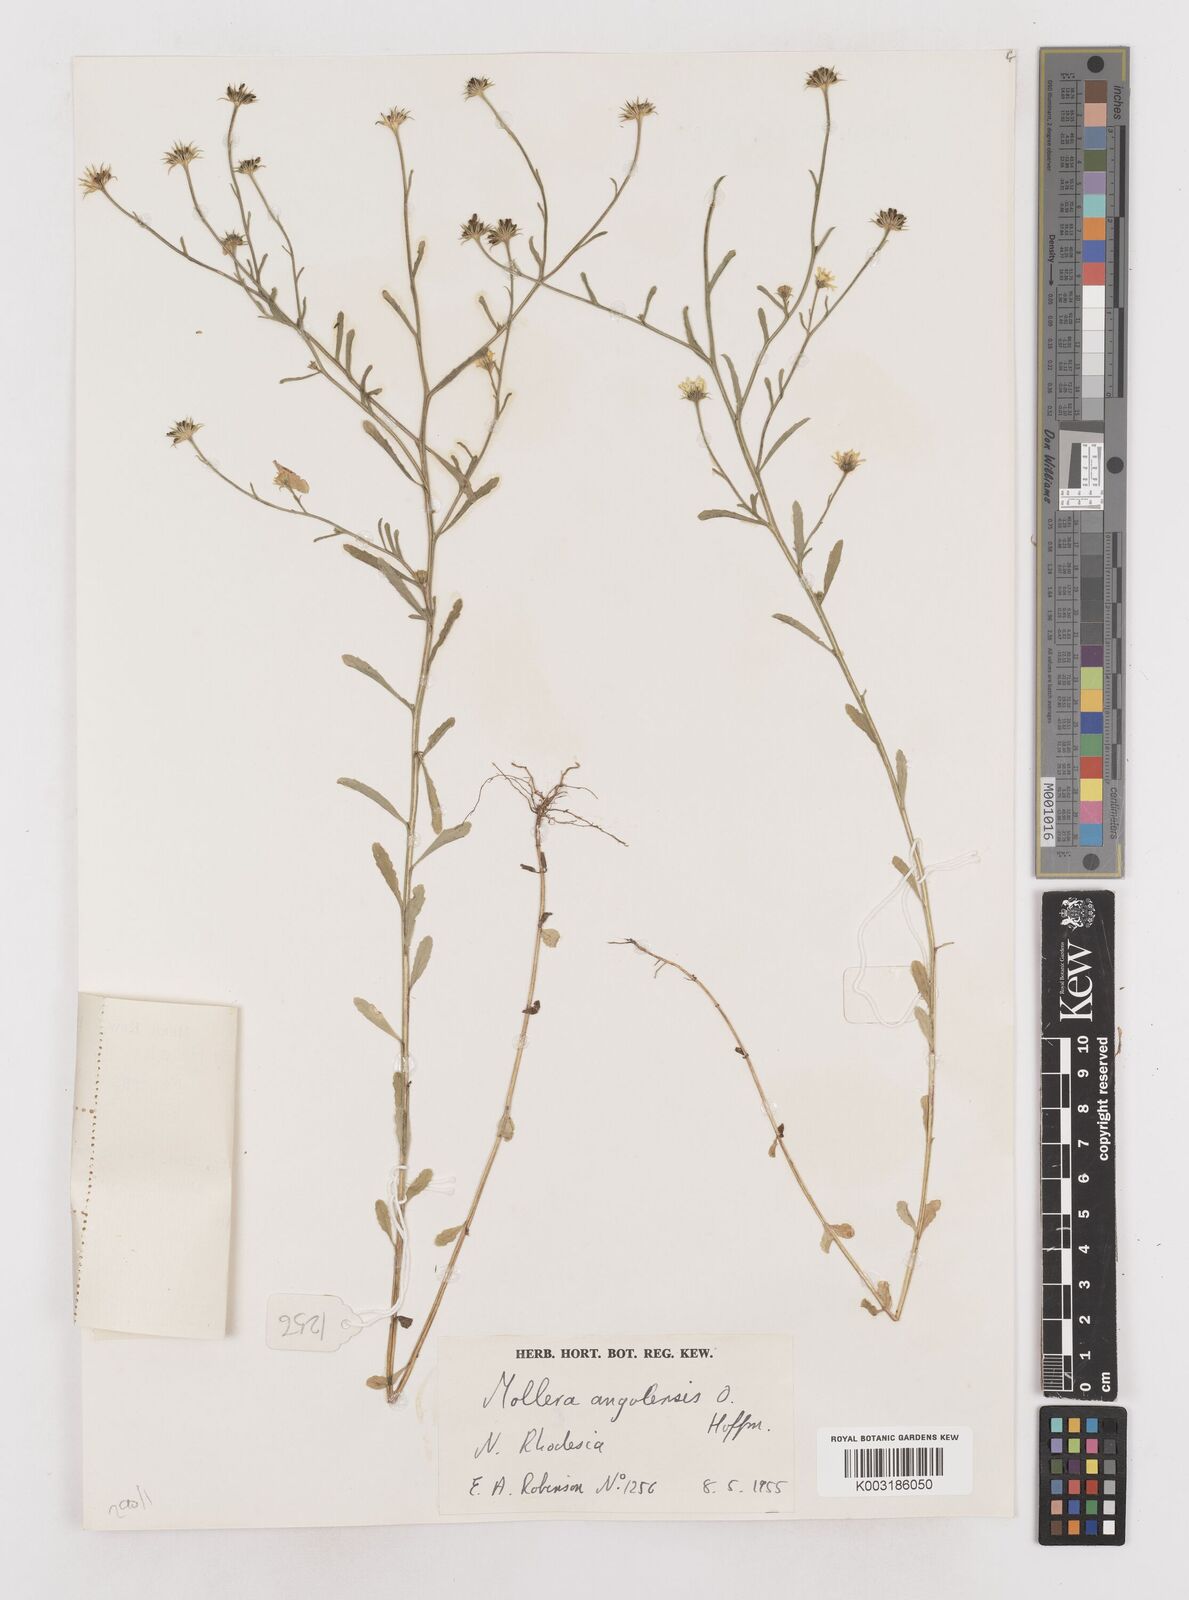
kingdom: Plantae
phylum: Tracheophyta
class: Magnoliopsida
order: Asterales
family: Asteraceae
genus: Calostephane
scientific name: Calostephane angolensis
